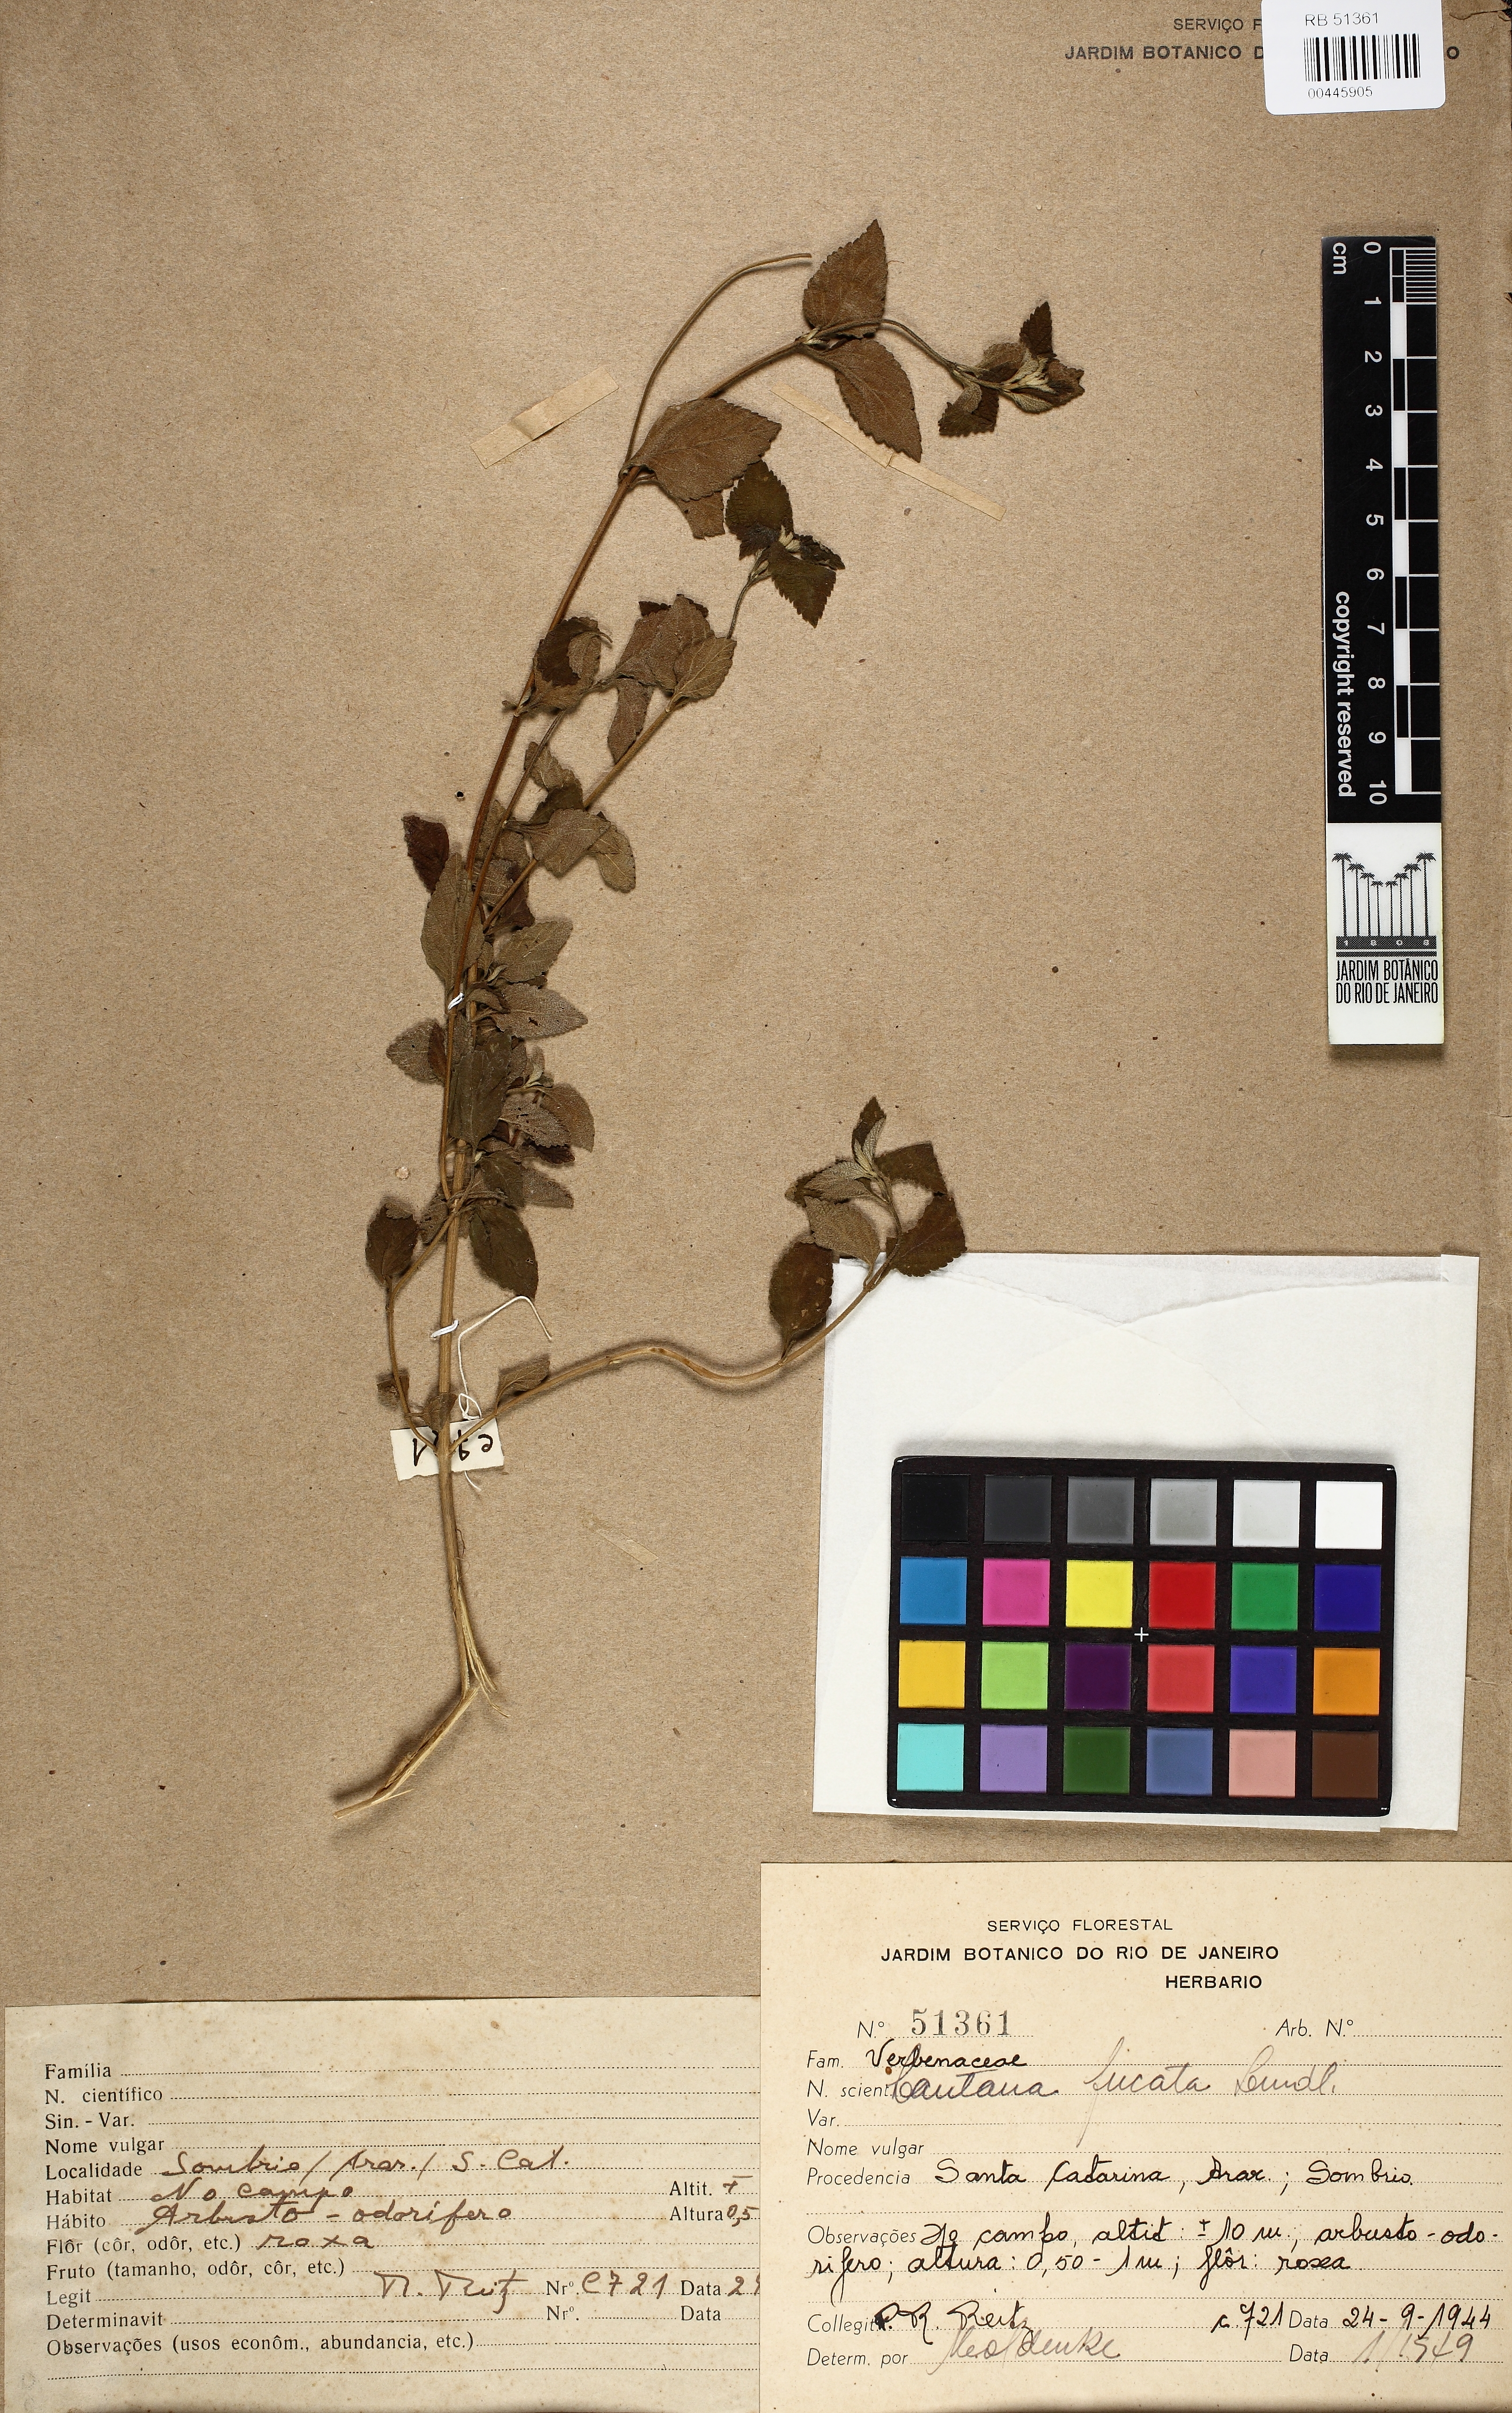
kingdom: Plantae
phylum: Tracheophyta
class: Magnoliopsida
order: Lamiales
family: Verbenaceae
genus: Lantana
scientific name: Lantana fucata
